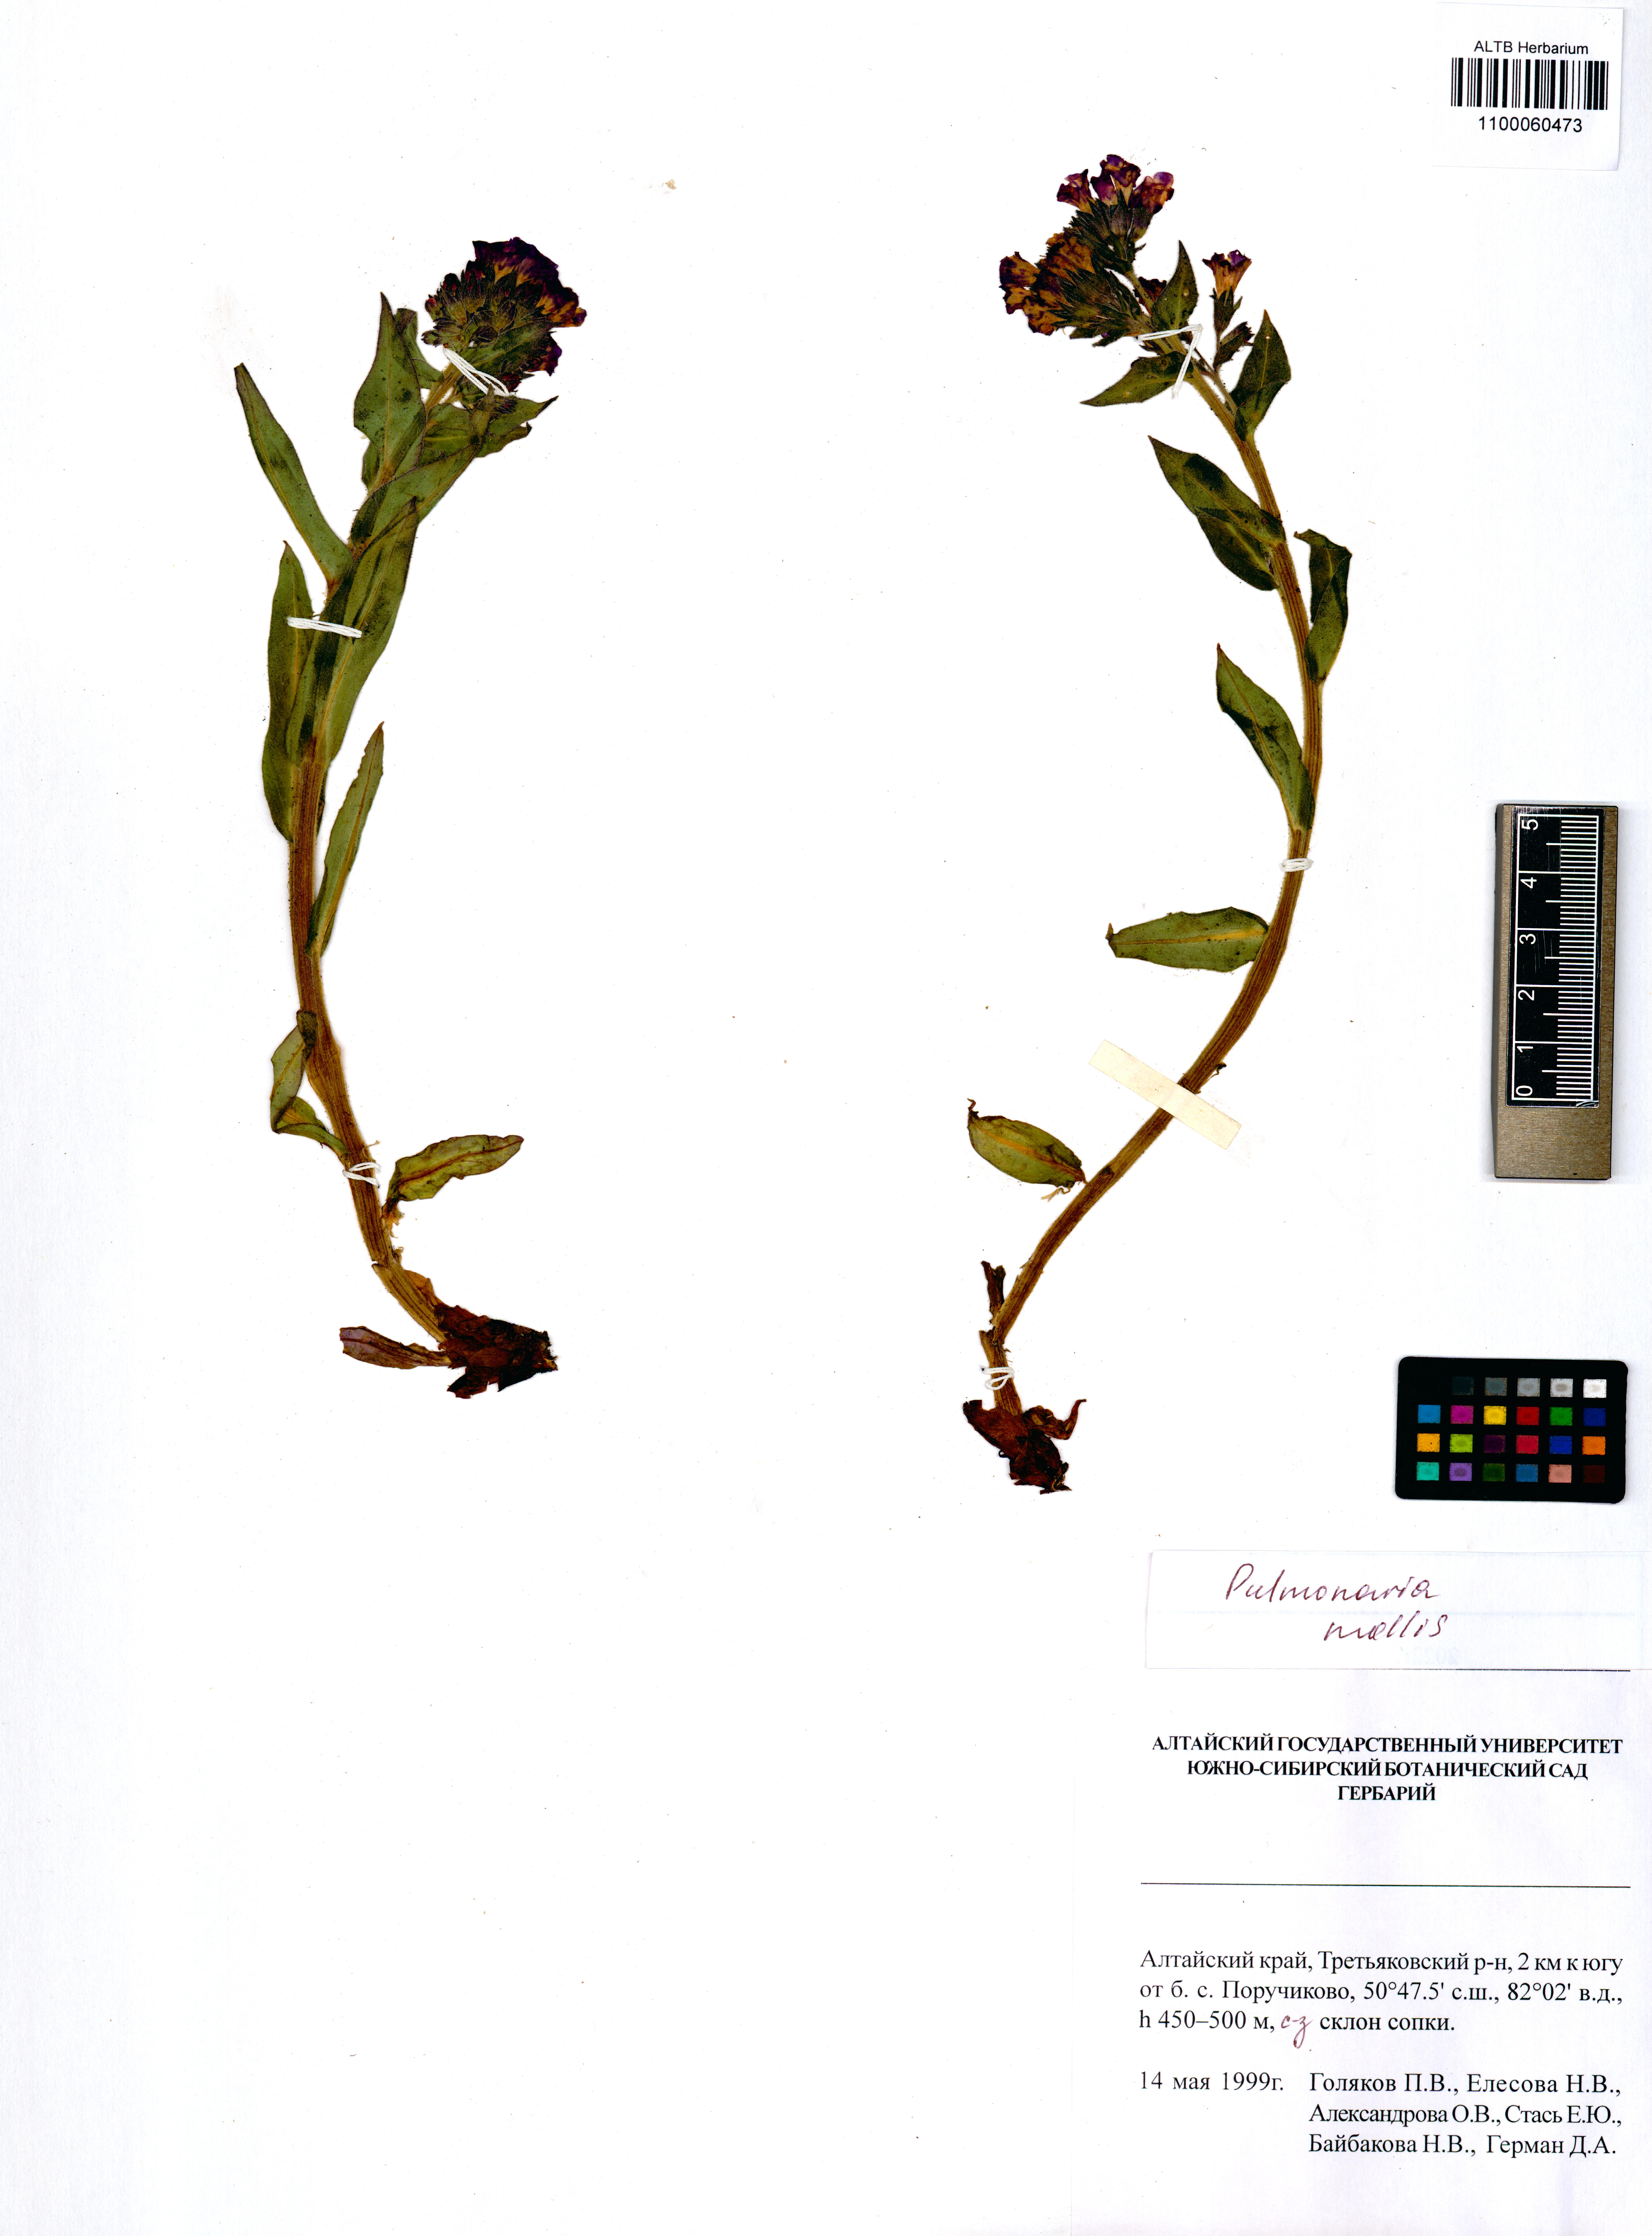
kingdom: Plantae
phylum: Tracheophyta
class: Magnoliopsida
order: Boraginales
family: Boraginaceae
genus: Pulmonaria
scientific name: Pulmonaria mollis
